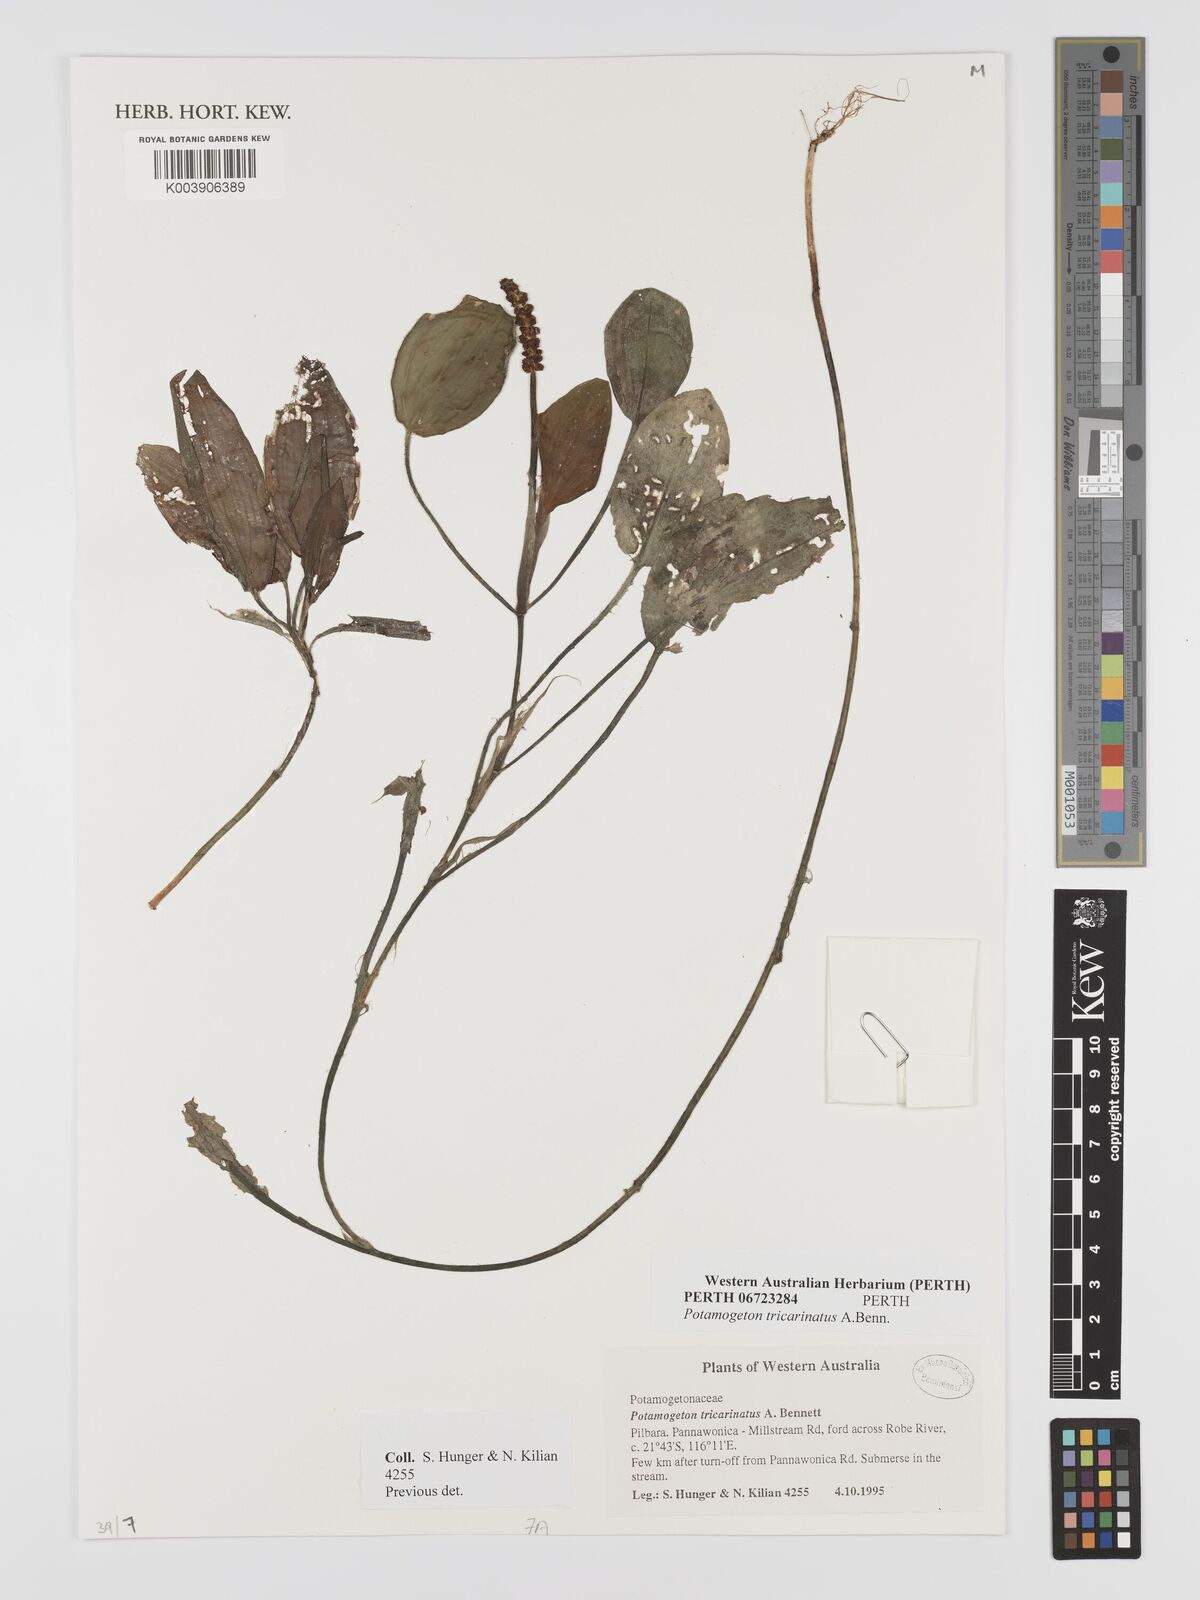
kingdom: Plantae
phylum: Tracheophyta
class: Liliopsida
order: Alismatales
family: Potamogetonaceae
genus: Potamogeton
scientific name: Potamogeton tricarinatus
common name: Pondweed
